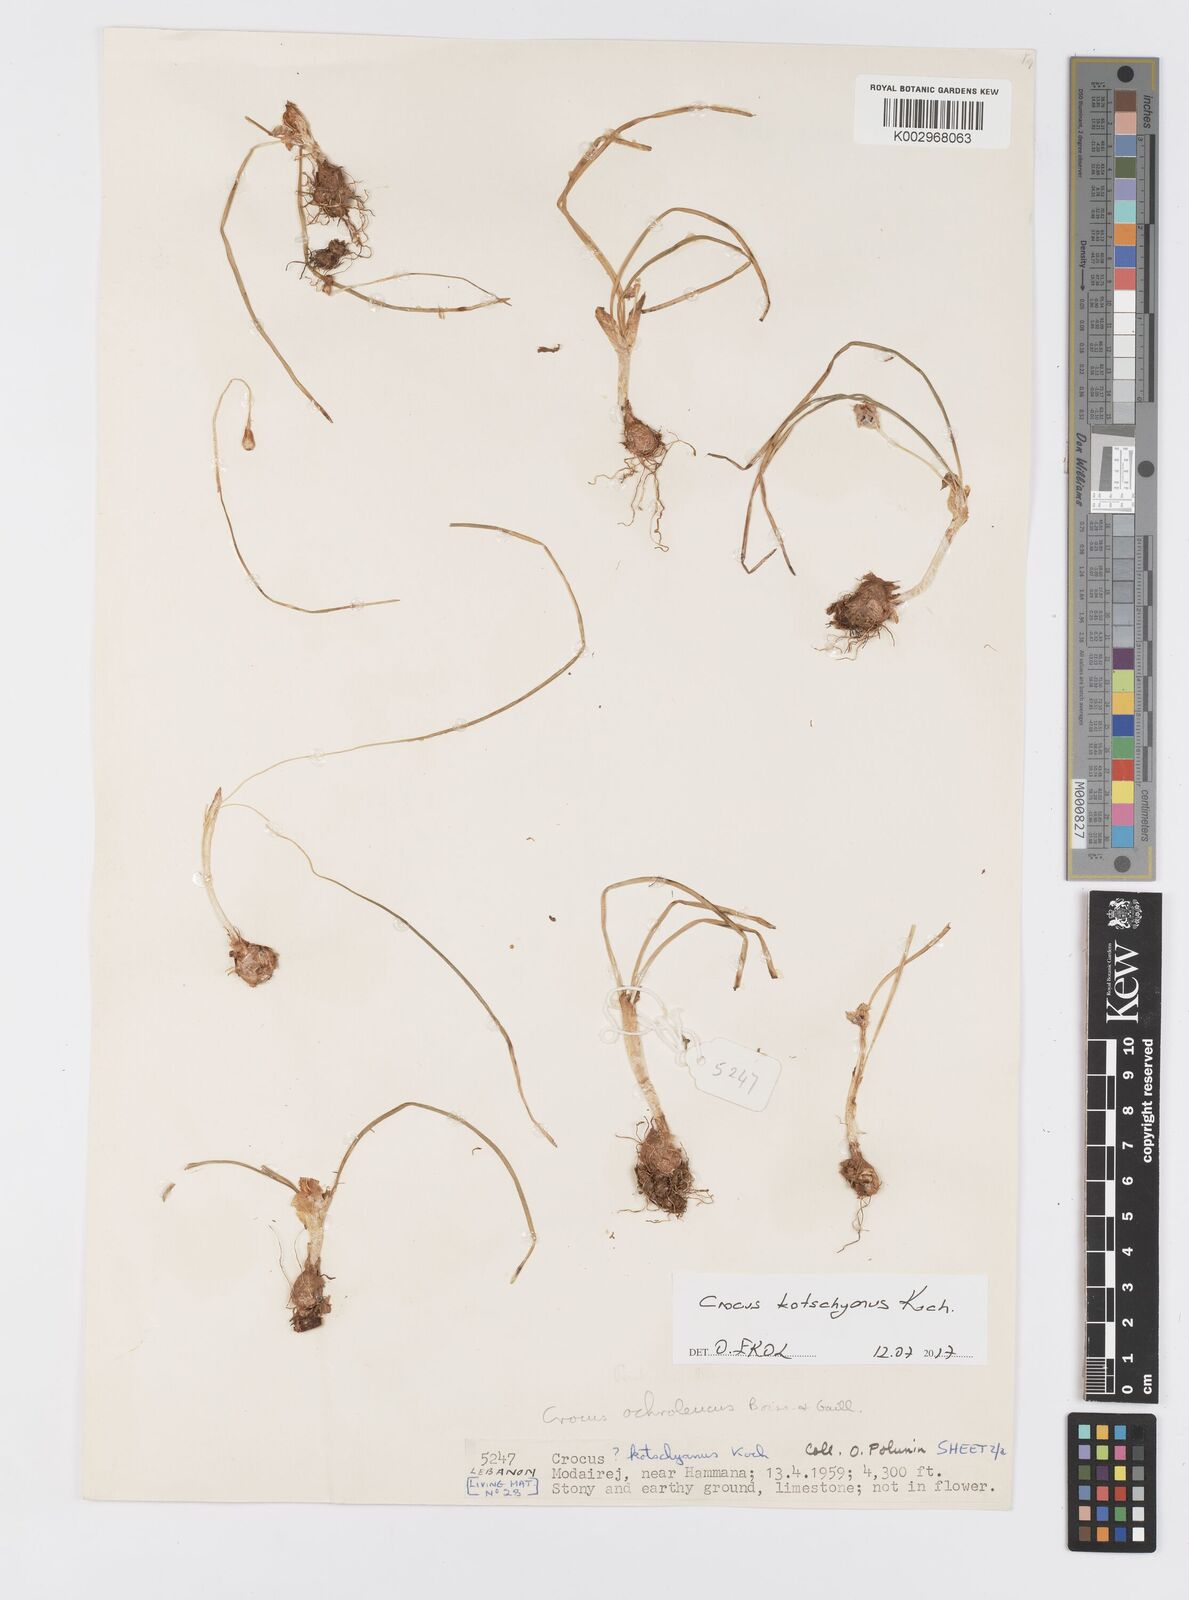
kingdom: Plantae
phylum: Tracheophyta
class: Liliopsida
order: Asparagales
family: Iridaceae
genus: Crocus
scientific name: Crocus ochroleucus
